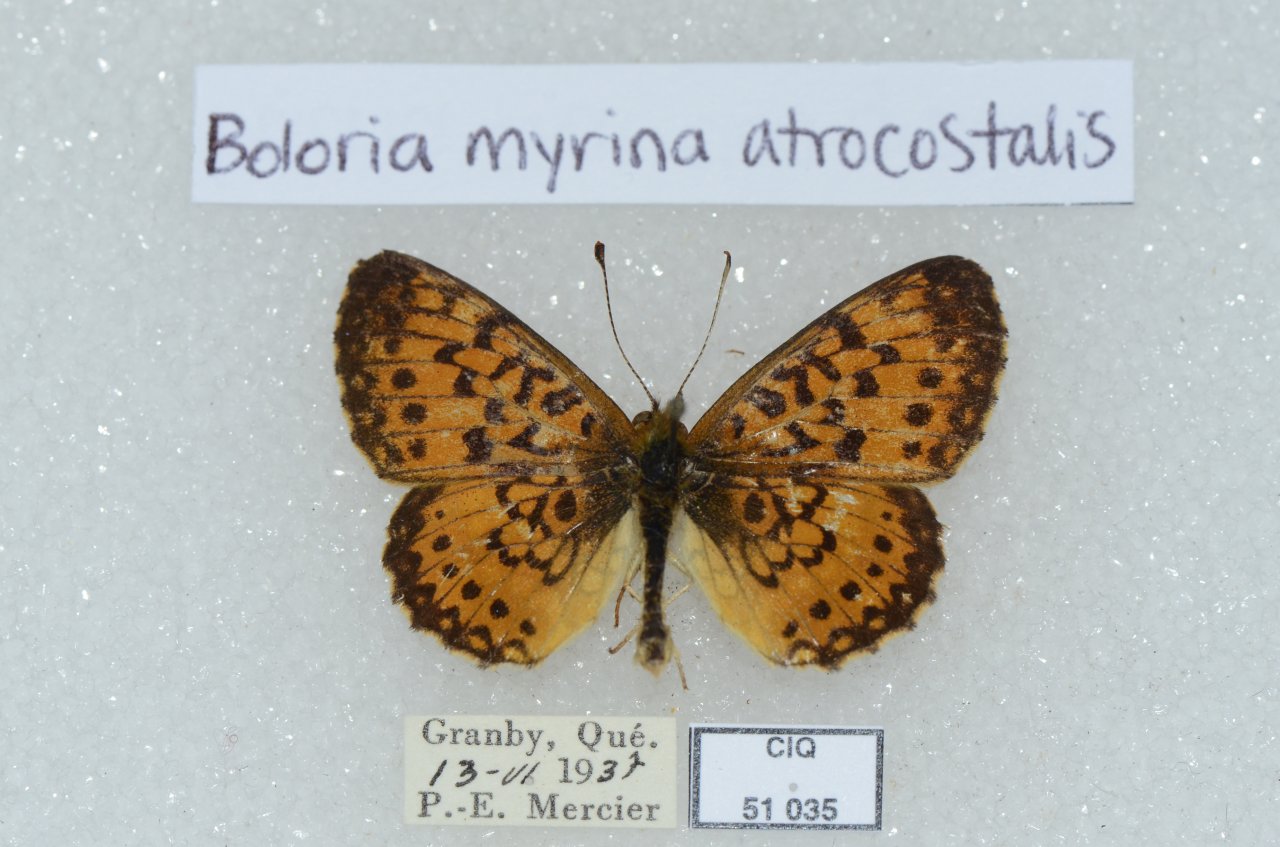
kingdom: Animalia
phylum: Arthropoda
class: Insecta
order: Lepidoptera
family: Nymphalidae
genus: Boloria
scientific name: Boloria selene
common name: Silver-bordered Fritillary
